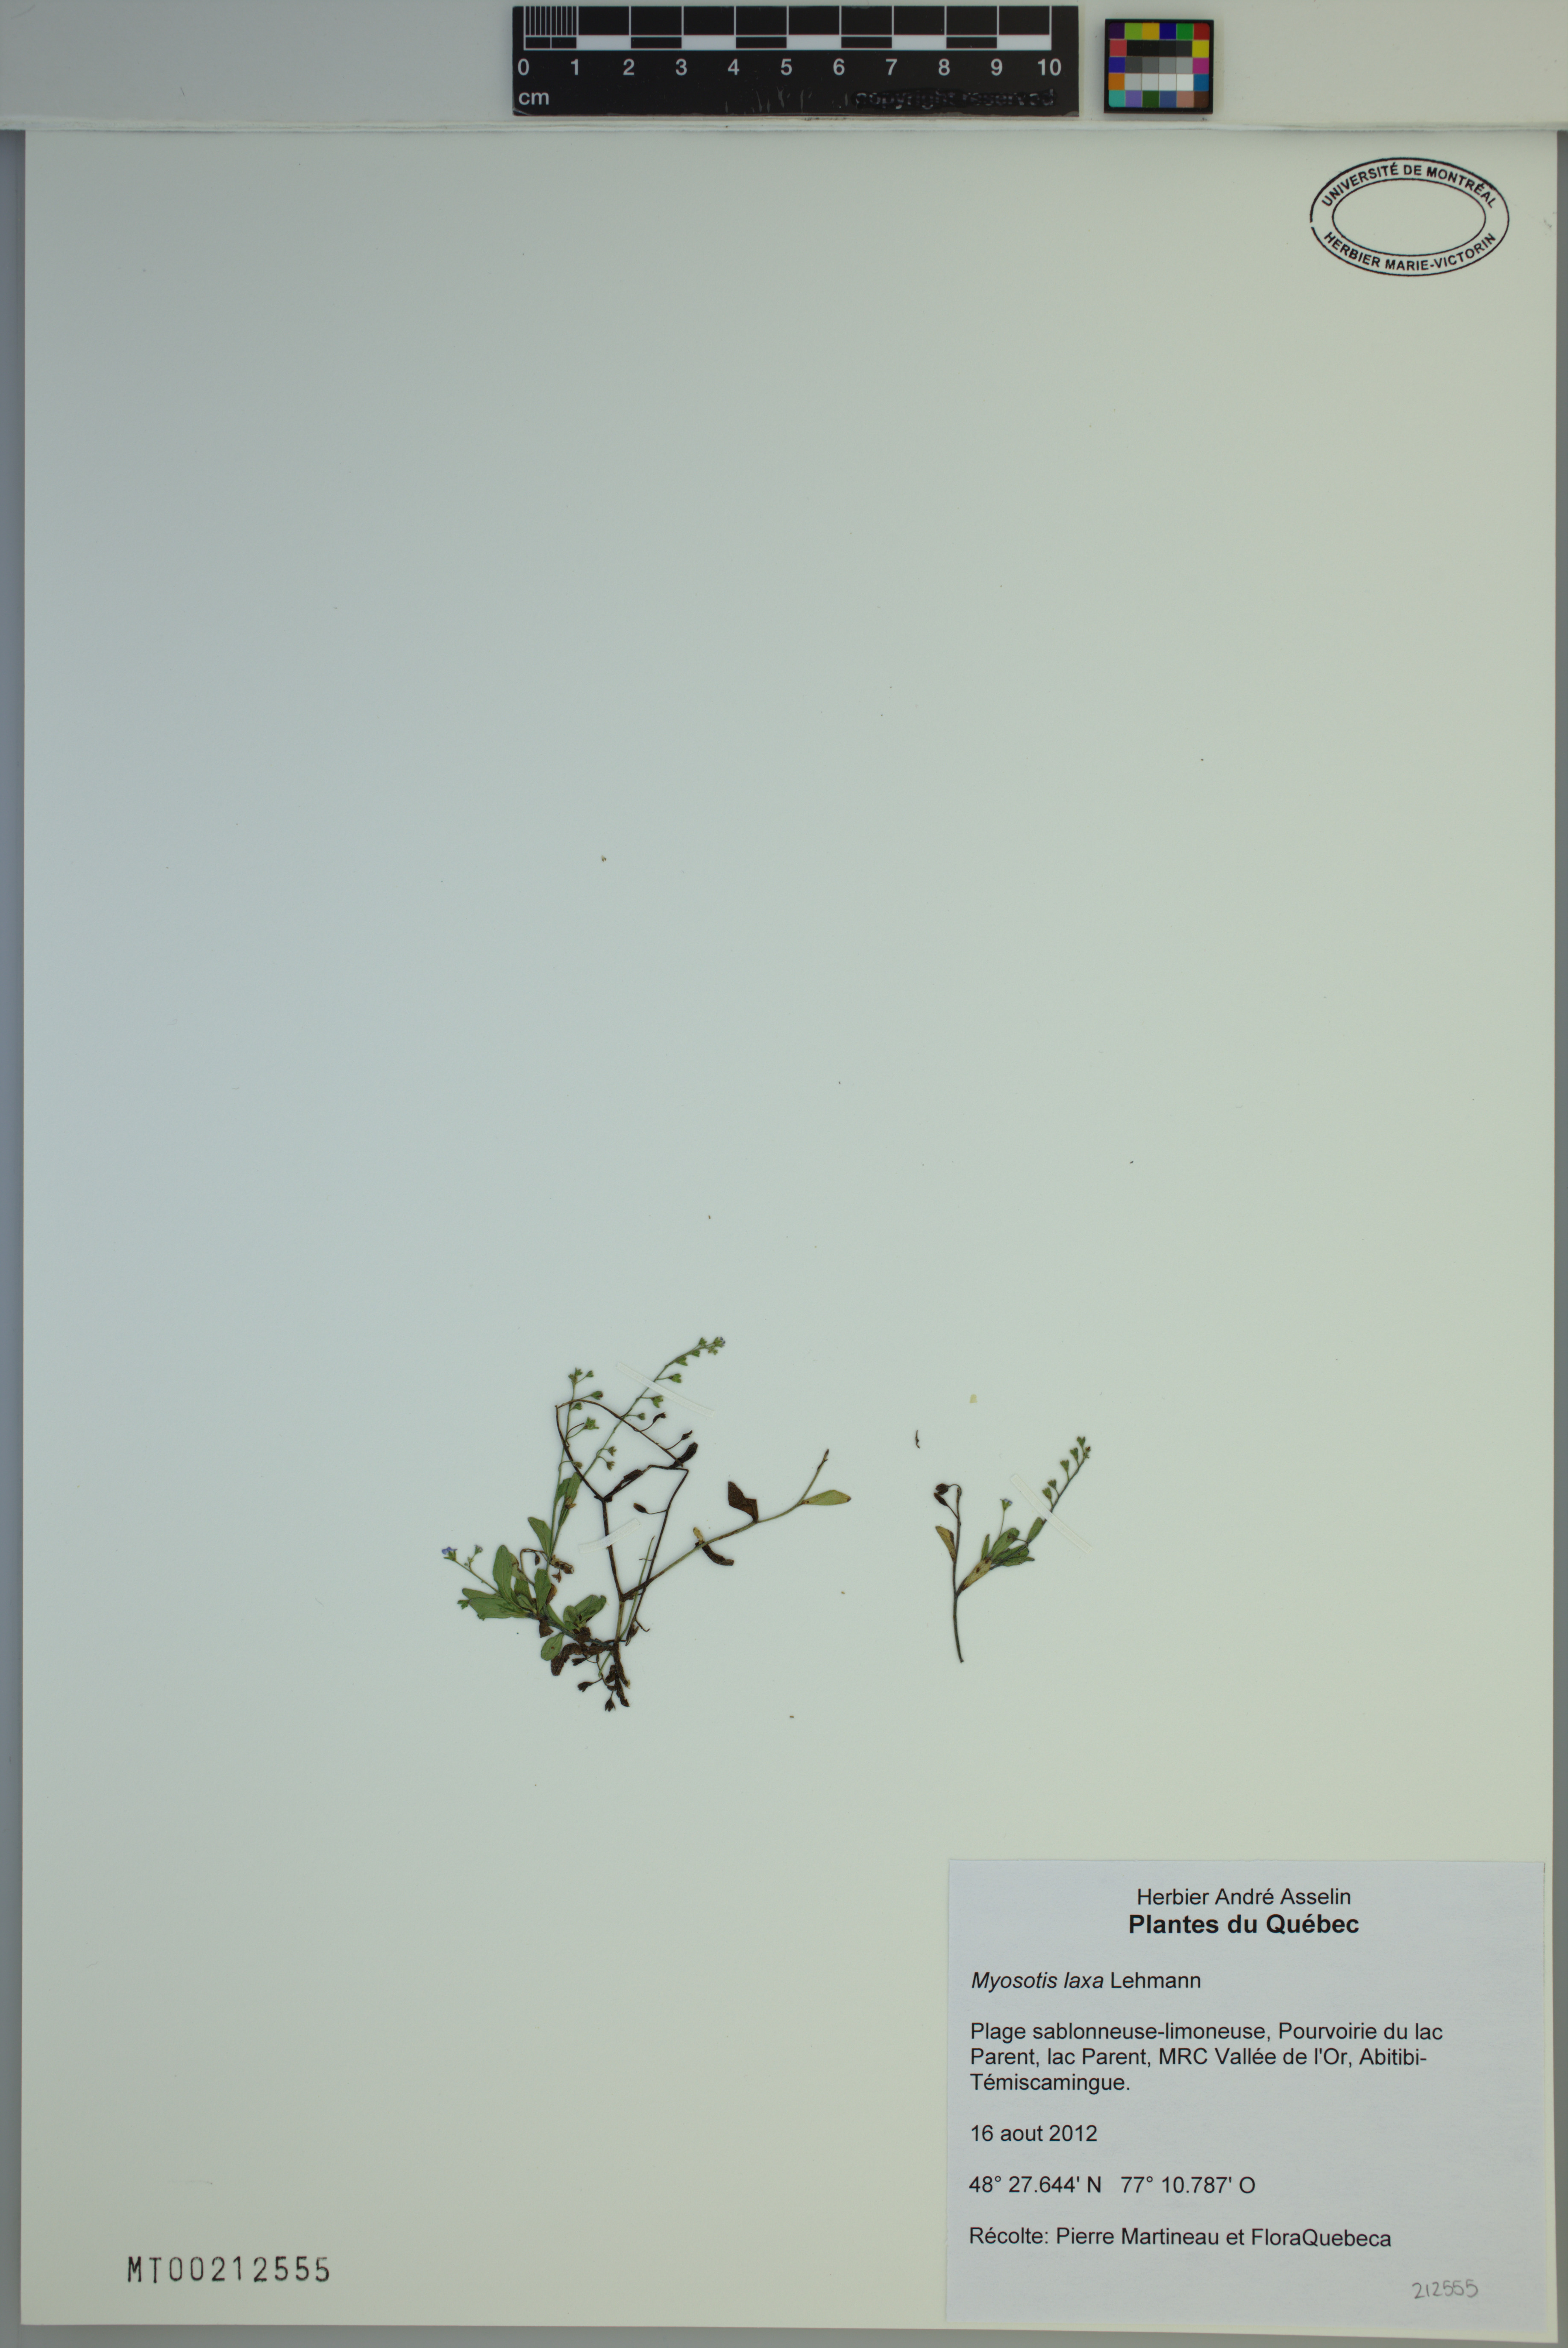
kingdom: Plantae
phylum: Tracheophyta
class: Magnoliopsida
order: Boraginales
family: Boraginaceae
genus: Myosotis
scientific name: Myosotis laxa
